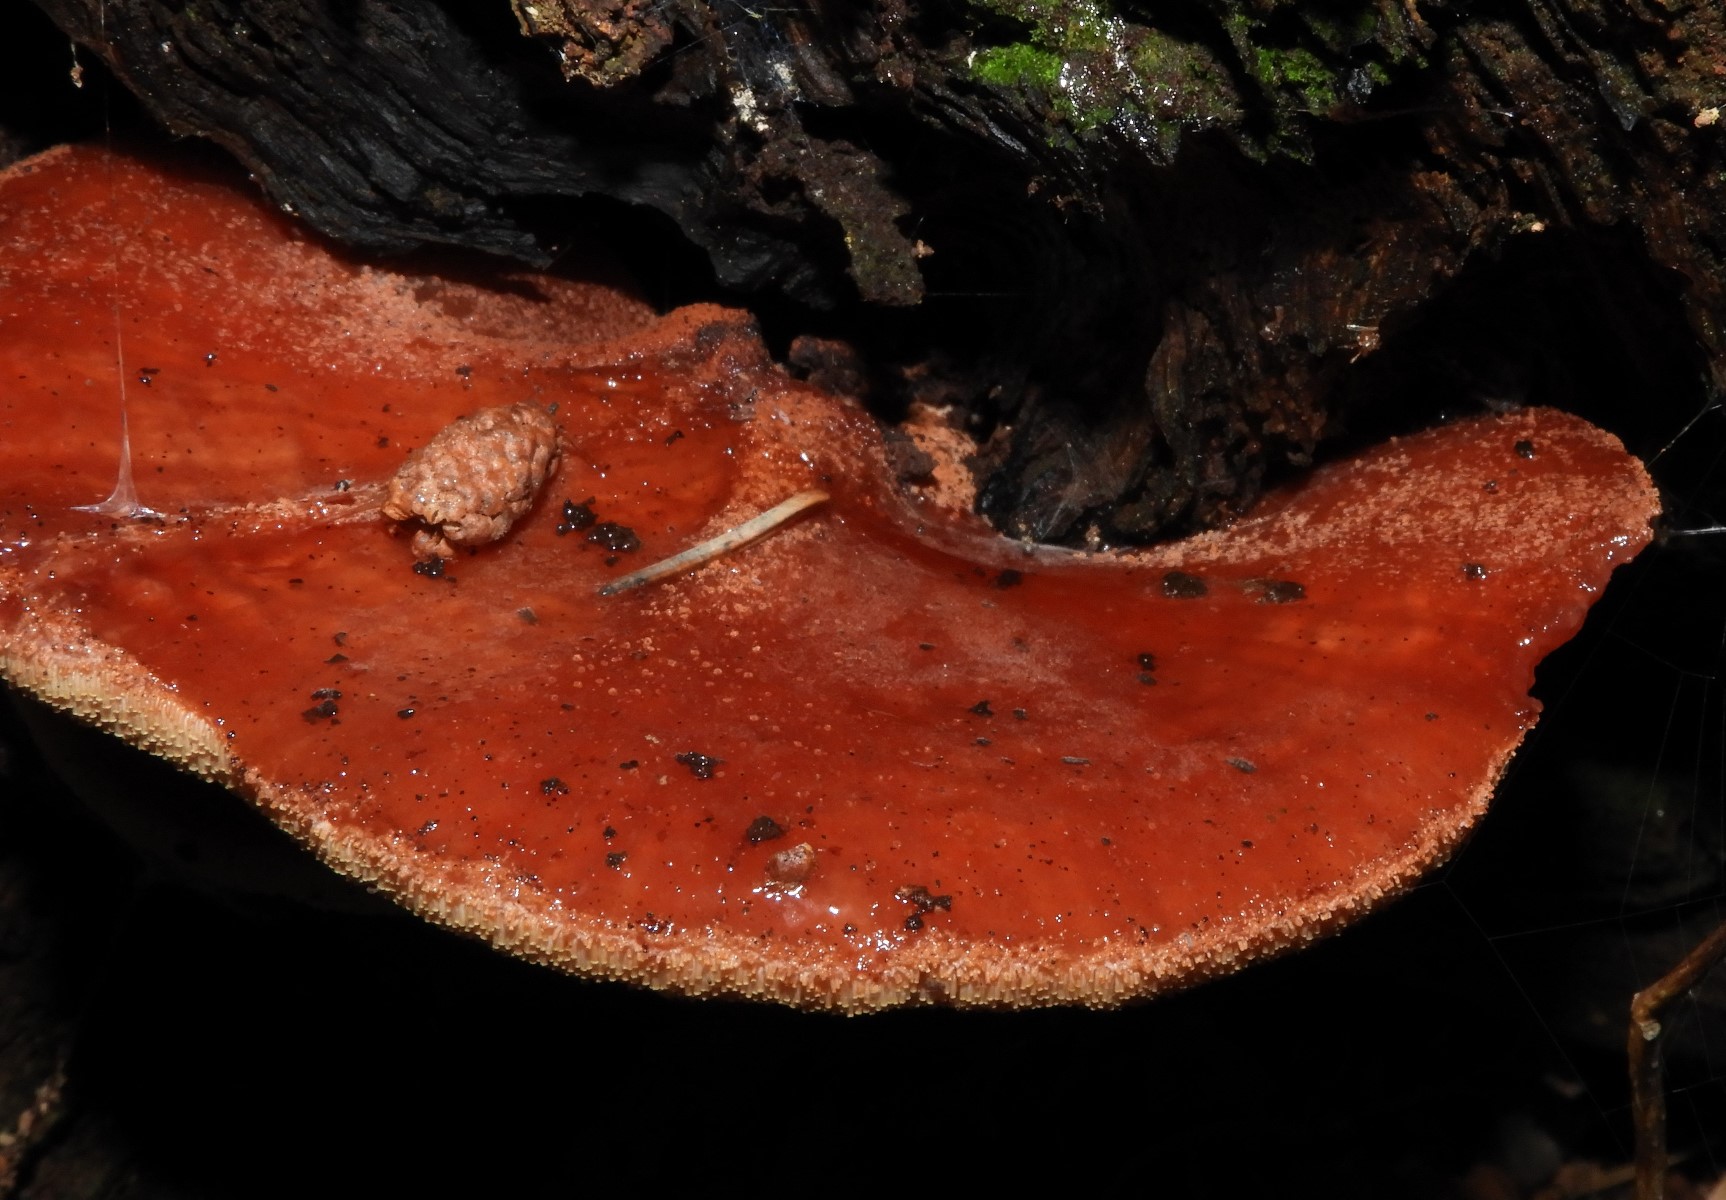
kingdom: Fungi
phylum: Basidiomycota
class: Agaricomycetes
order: Agaricales
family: Fistulinaceae
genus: Fistulina
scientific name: Fistulina hepatica
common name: oksetunge
